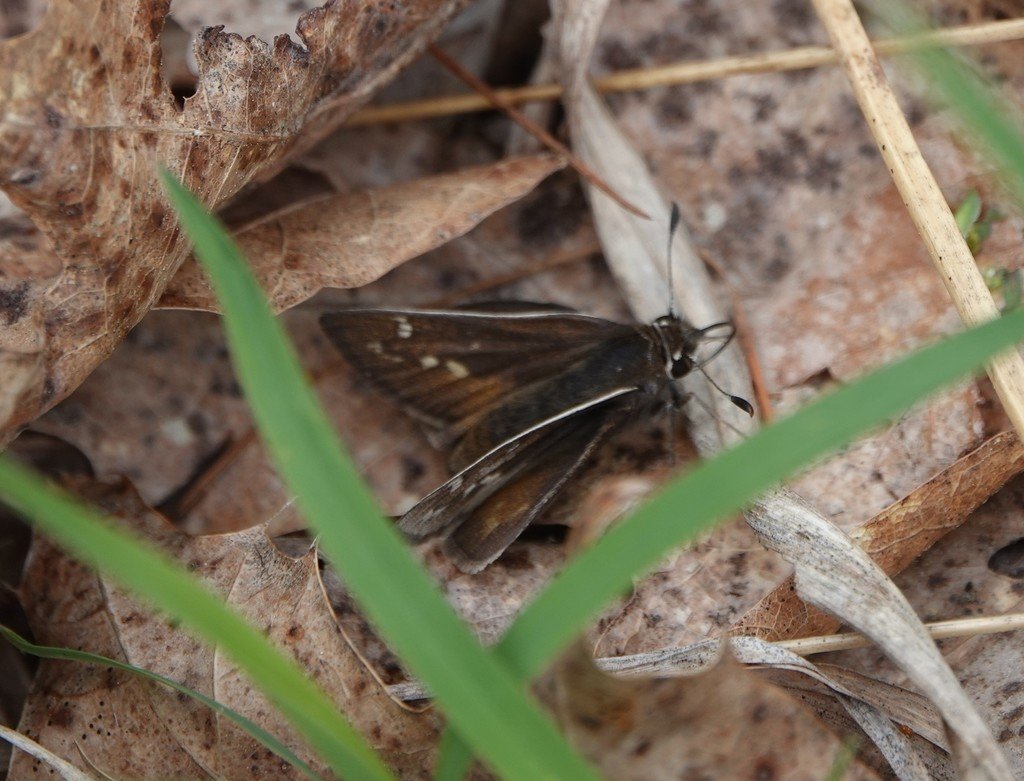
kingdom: Animalia
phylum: Arthropoda
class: Insecta
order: Lepidoptera
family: Hesperiidae
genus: Hesperia
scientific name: Hesperia metea
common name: Cobweb Skipper
